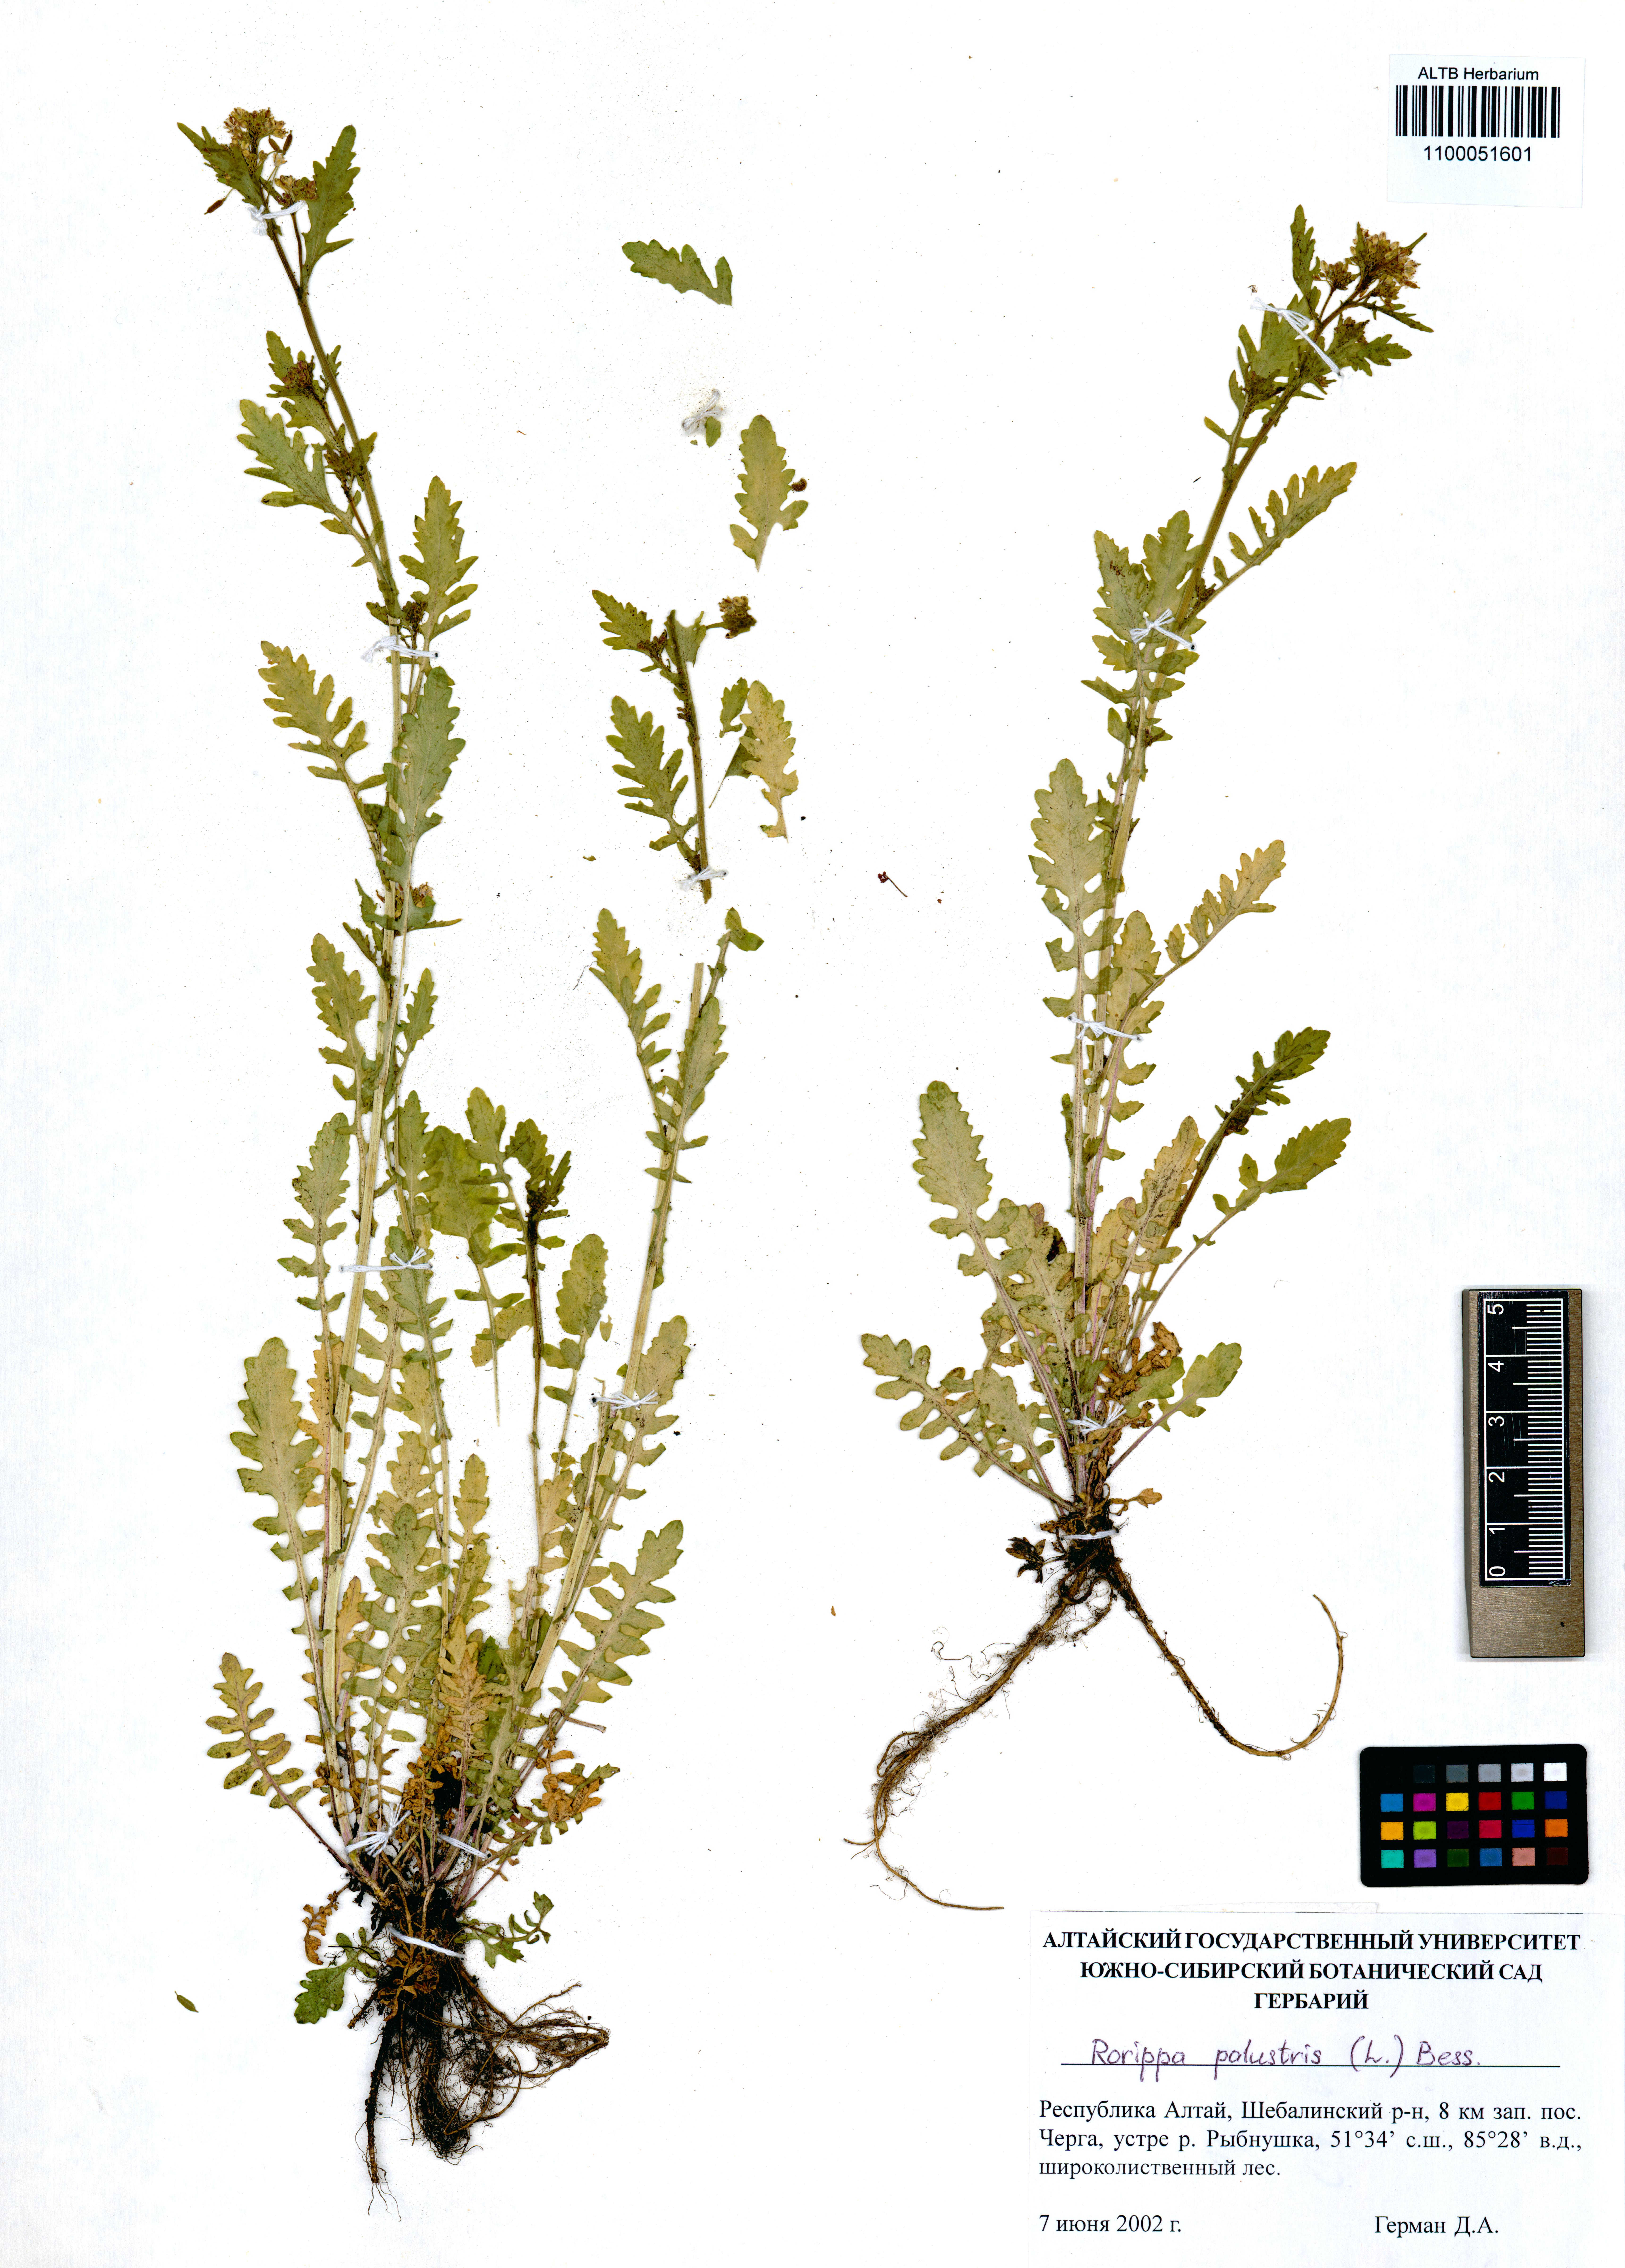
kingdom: Plantae
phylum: Tracheophyta
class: Magnoliopsida
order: Brassicales
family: Brassicaceae
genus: Rorippa
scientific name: Rorippa palustris
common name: Marsh yellow-cress
